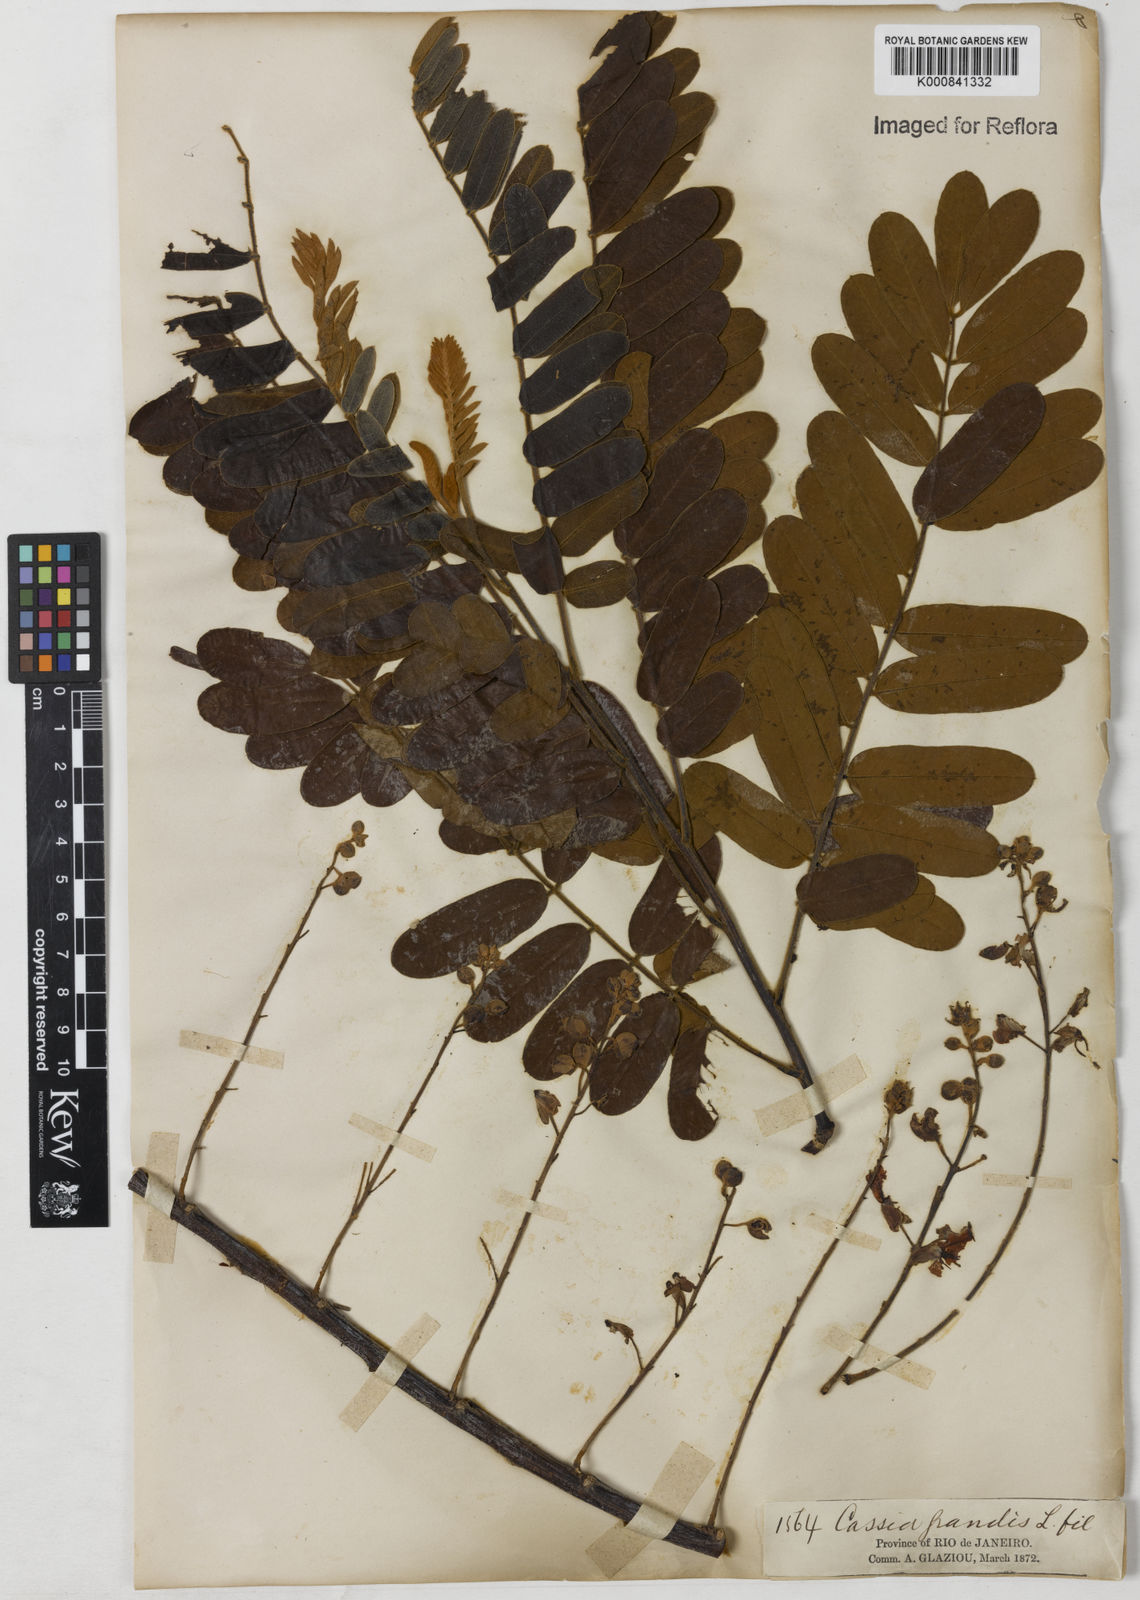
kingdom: Plantae
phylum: Tracheophyta
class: Magnoliopsida
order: Fabales
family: Fabaceae
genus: Cassia
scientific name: Cassia grandis
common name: Appleblossom cassia
